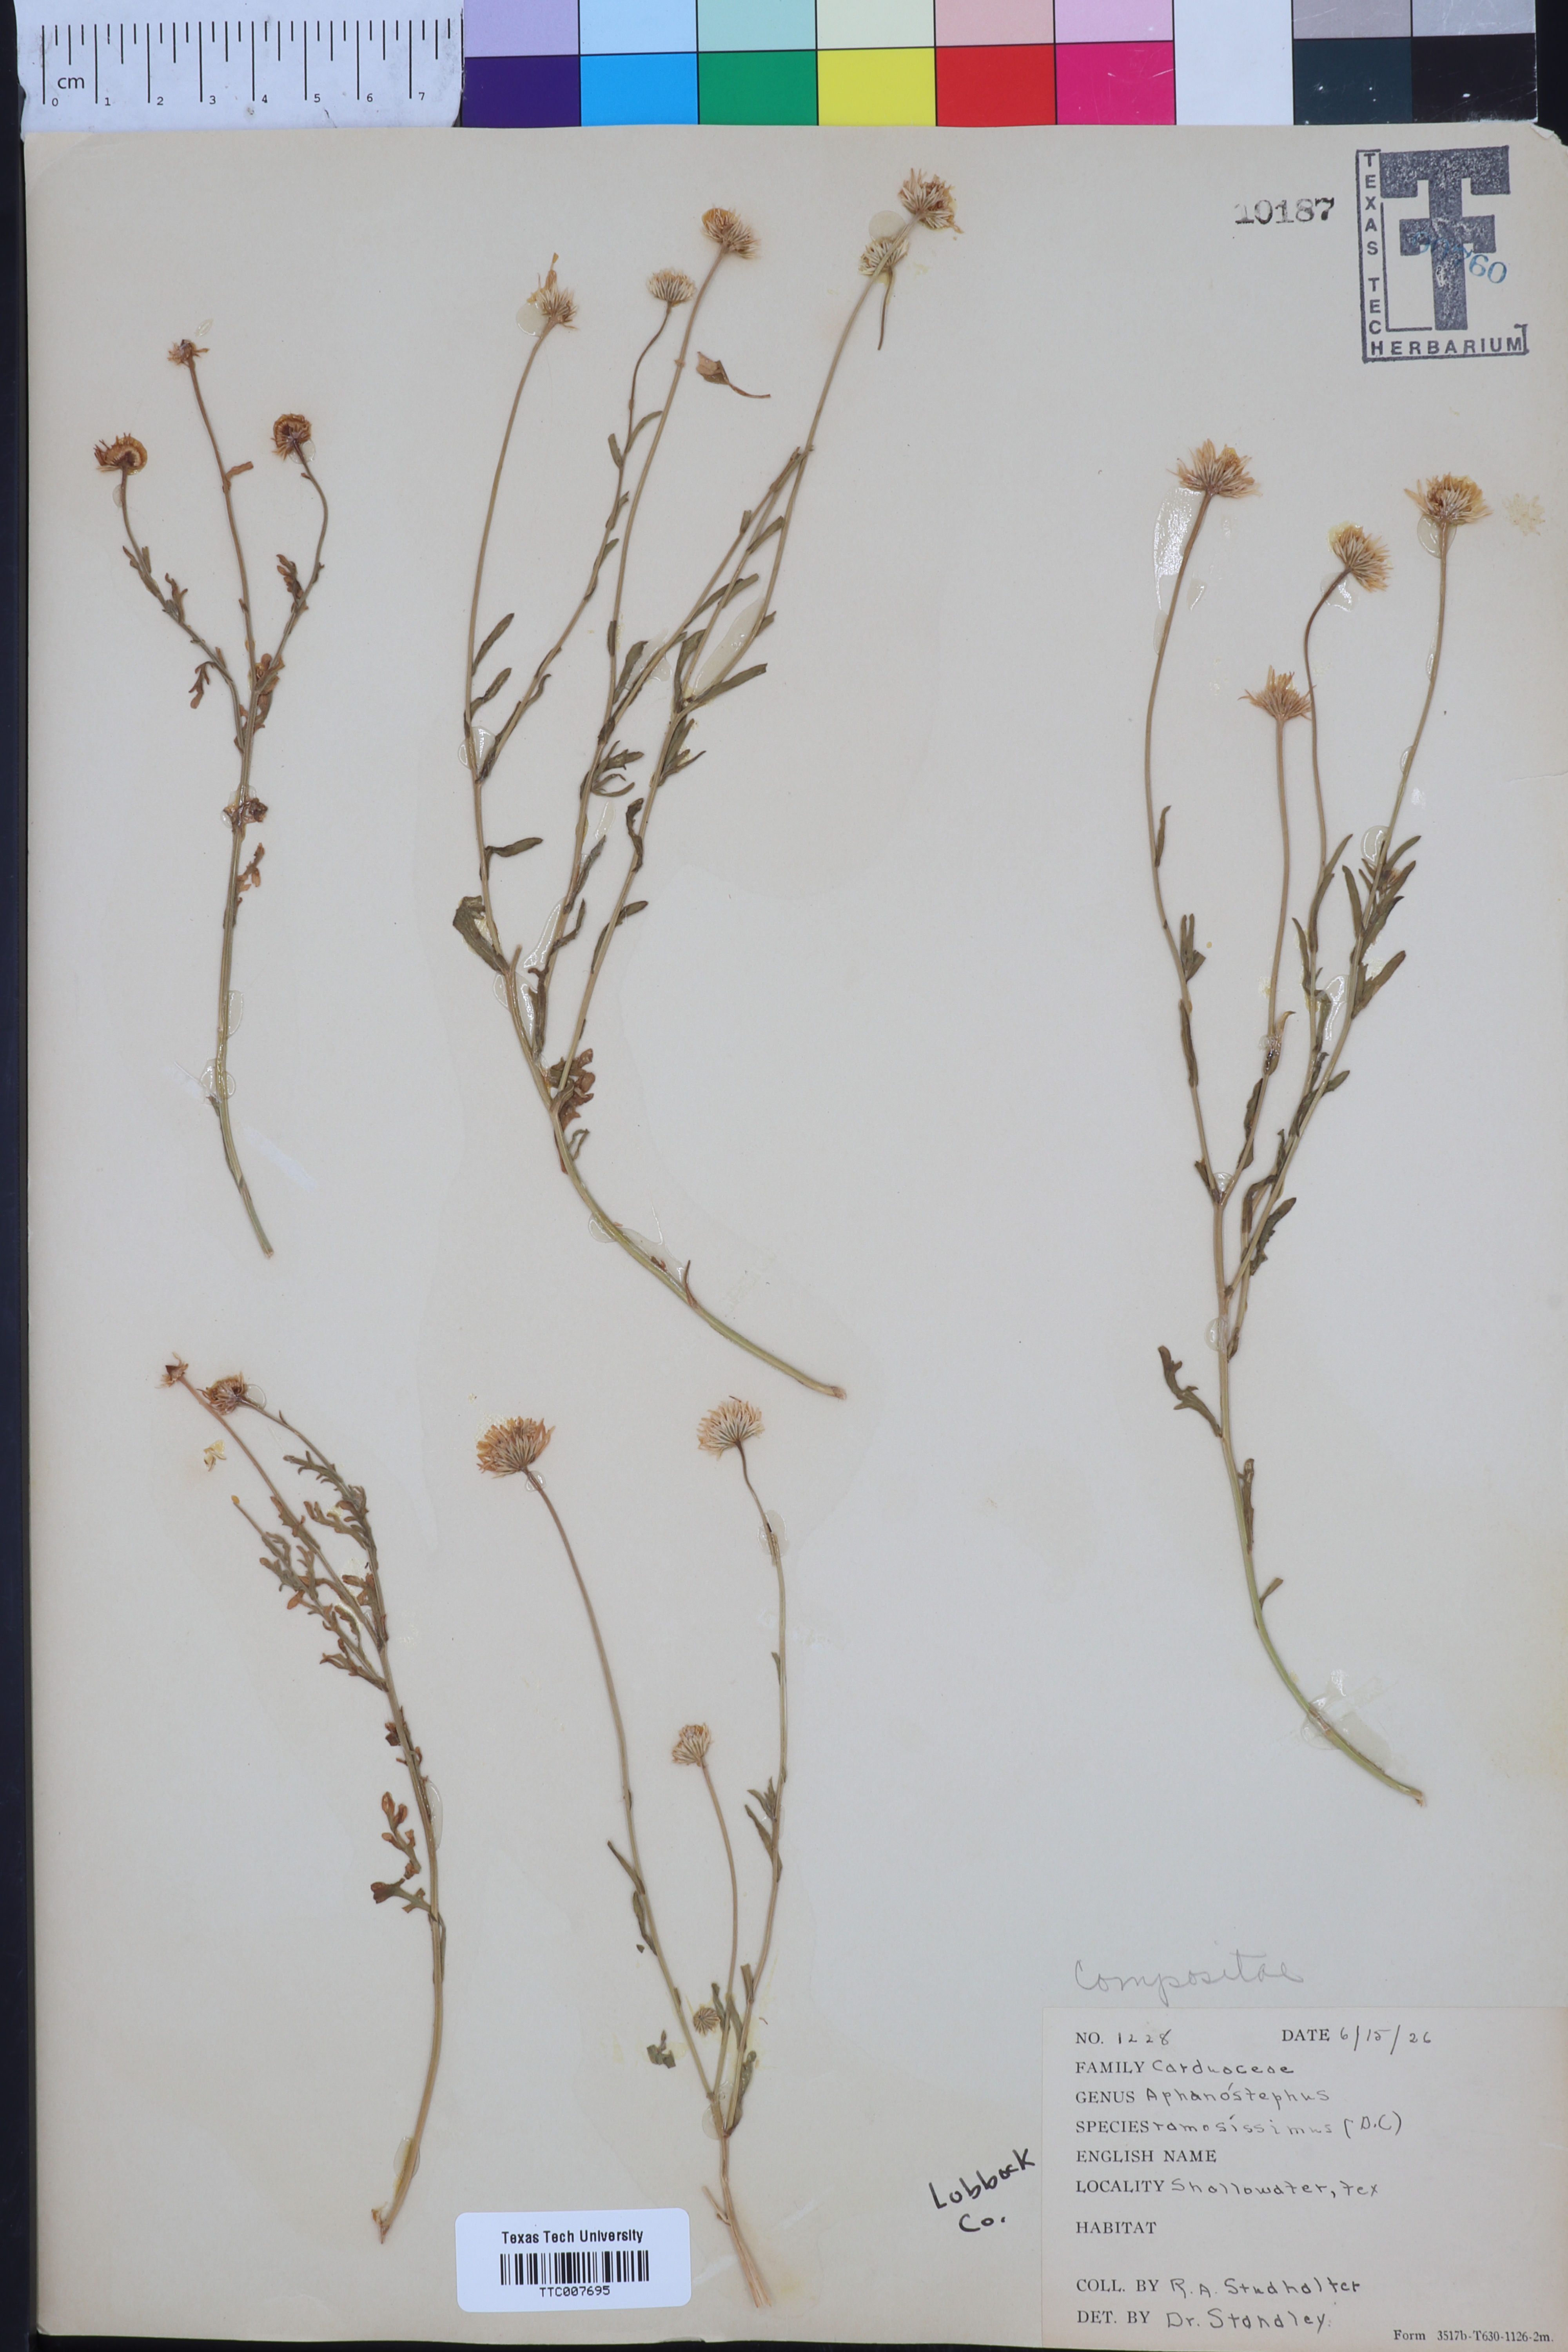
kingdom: Plantae
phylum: Tracheophyta
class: Magnoliopsida
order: Asterales
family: Asteraceae
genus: Aphanostephus
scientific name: Aphanostephus ramosissimus
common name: Plains lazy daisy
